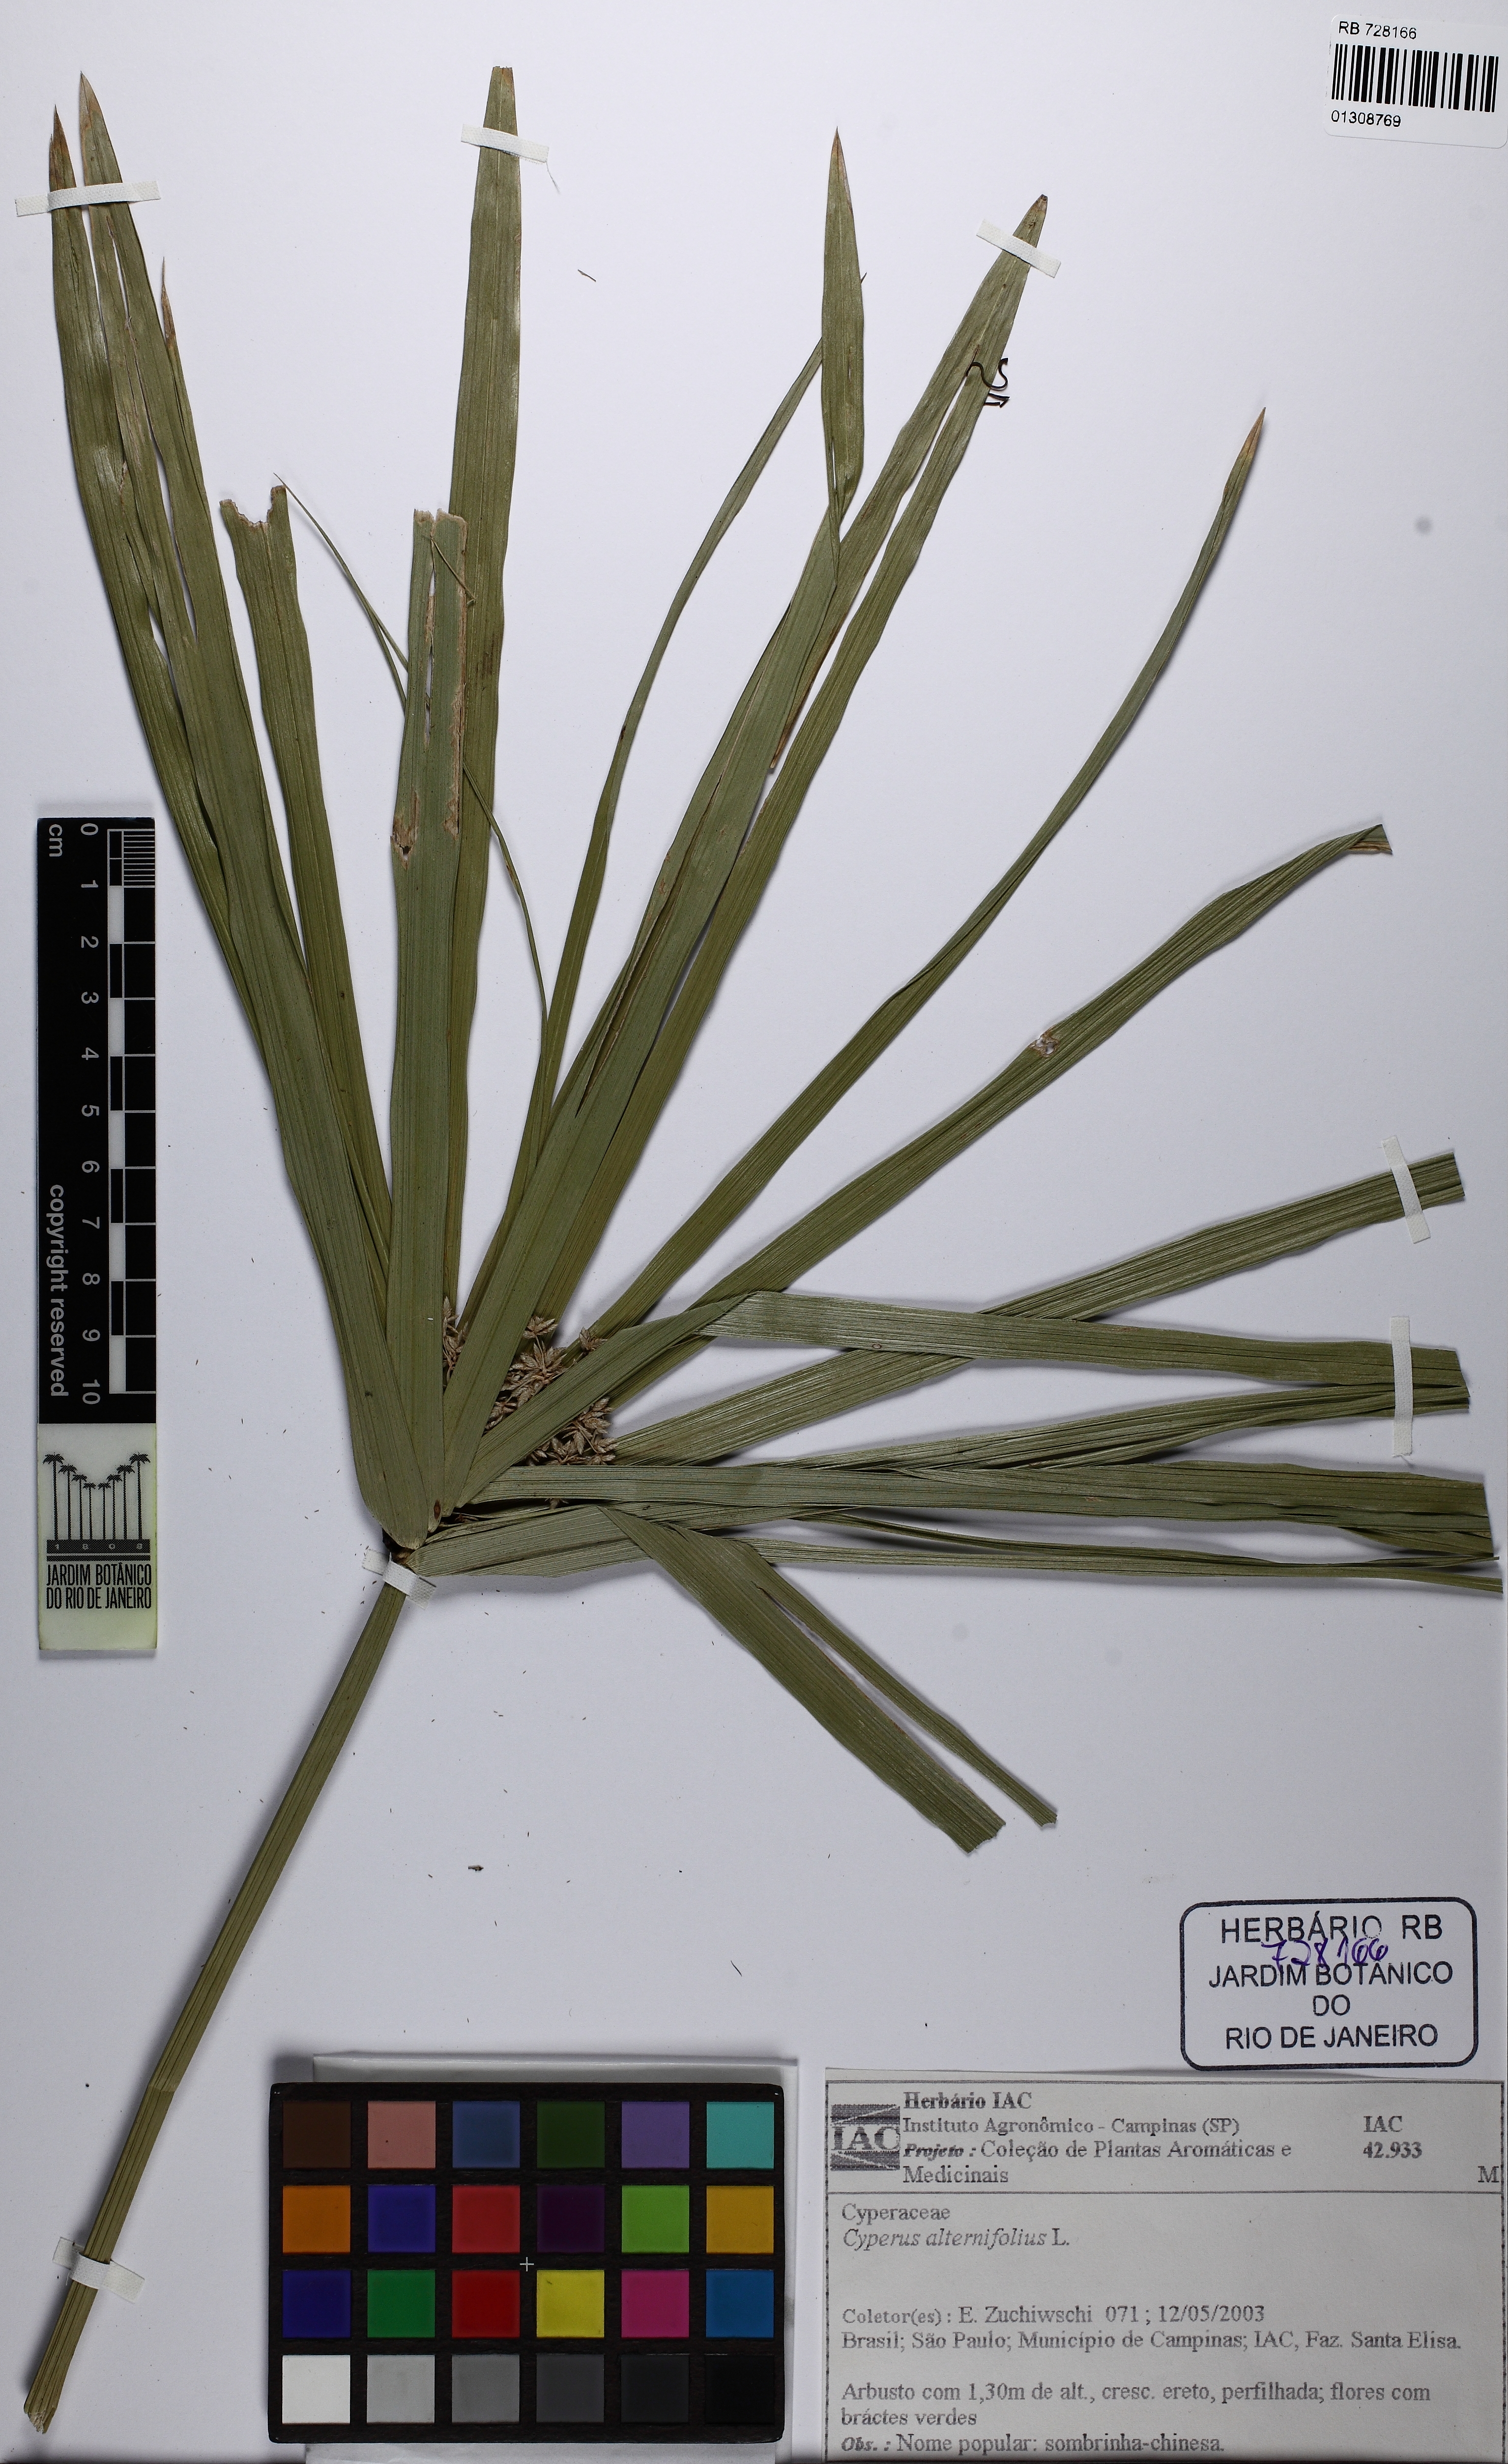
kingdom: Plantae
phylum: Tracheophyta
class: Liliopsida
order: Poales
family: Cyperaceae
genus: Cyperus
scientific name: Cyperus alternifolius
